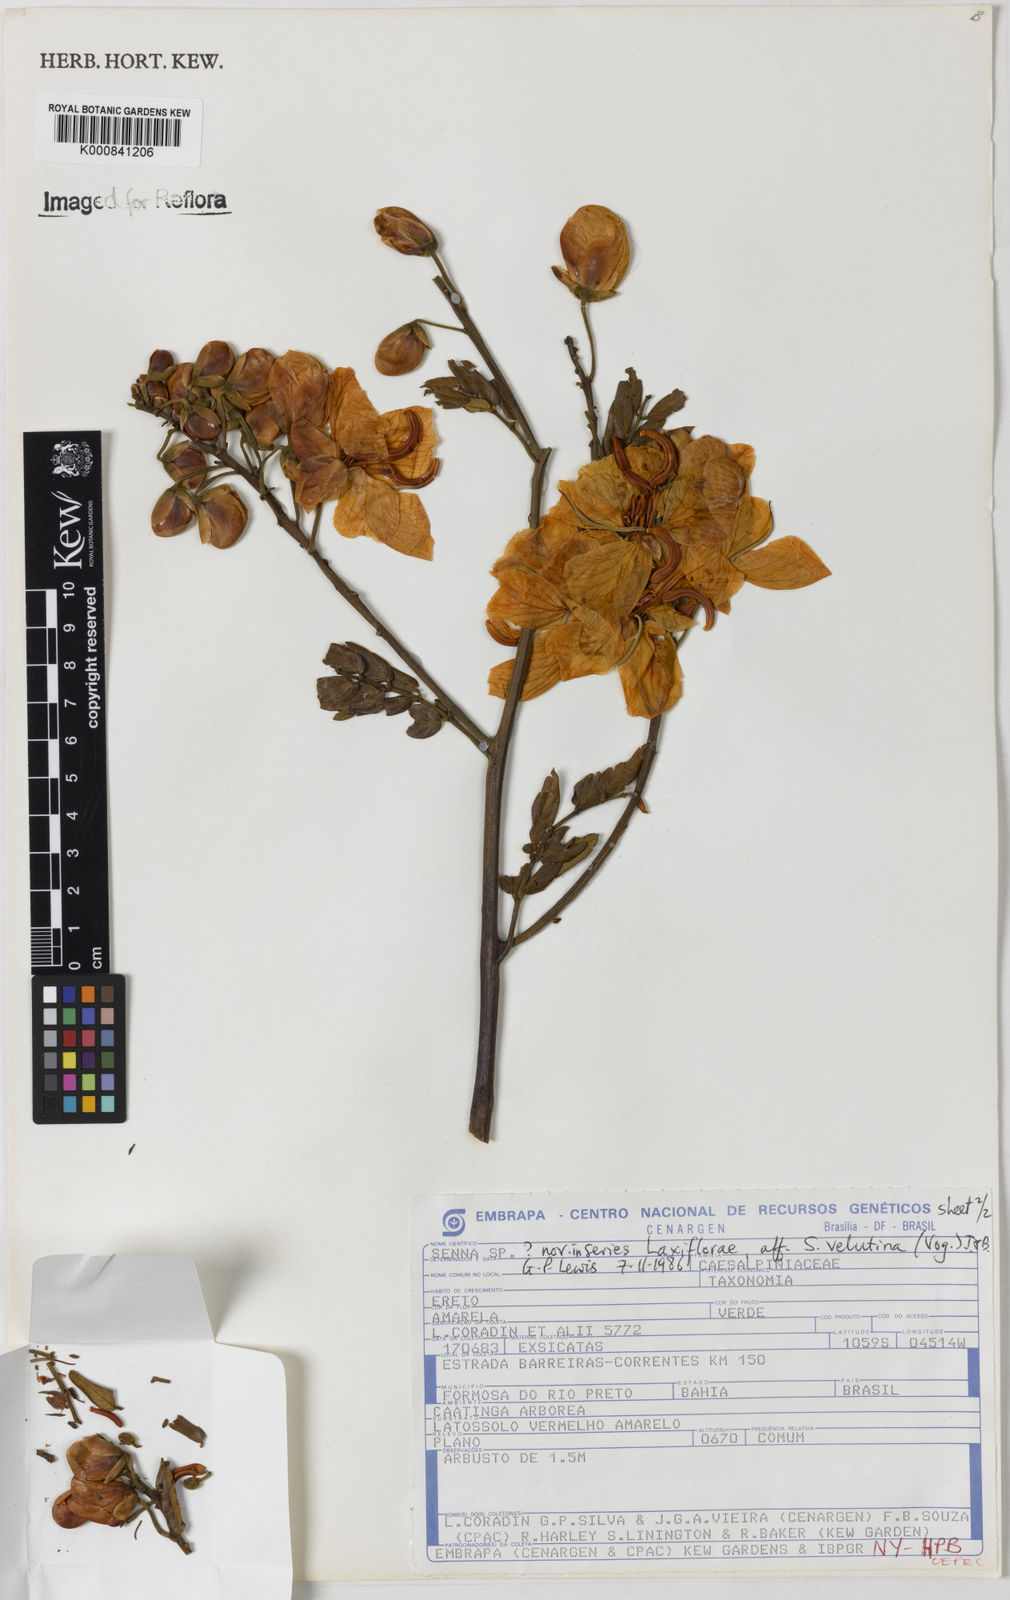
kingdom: Plantae
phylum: Tracheophyta
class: Magnoliopsida
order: Fabales
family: Fabaceae
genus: Senna
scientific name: Senna velutina
